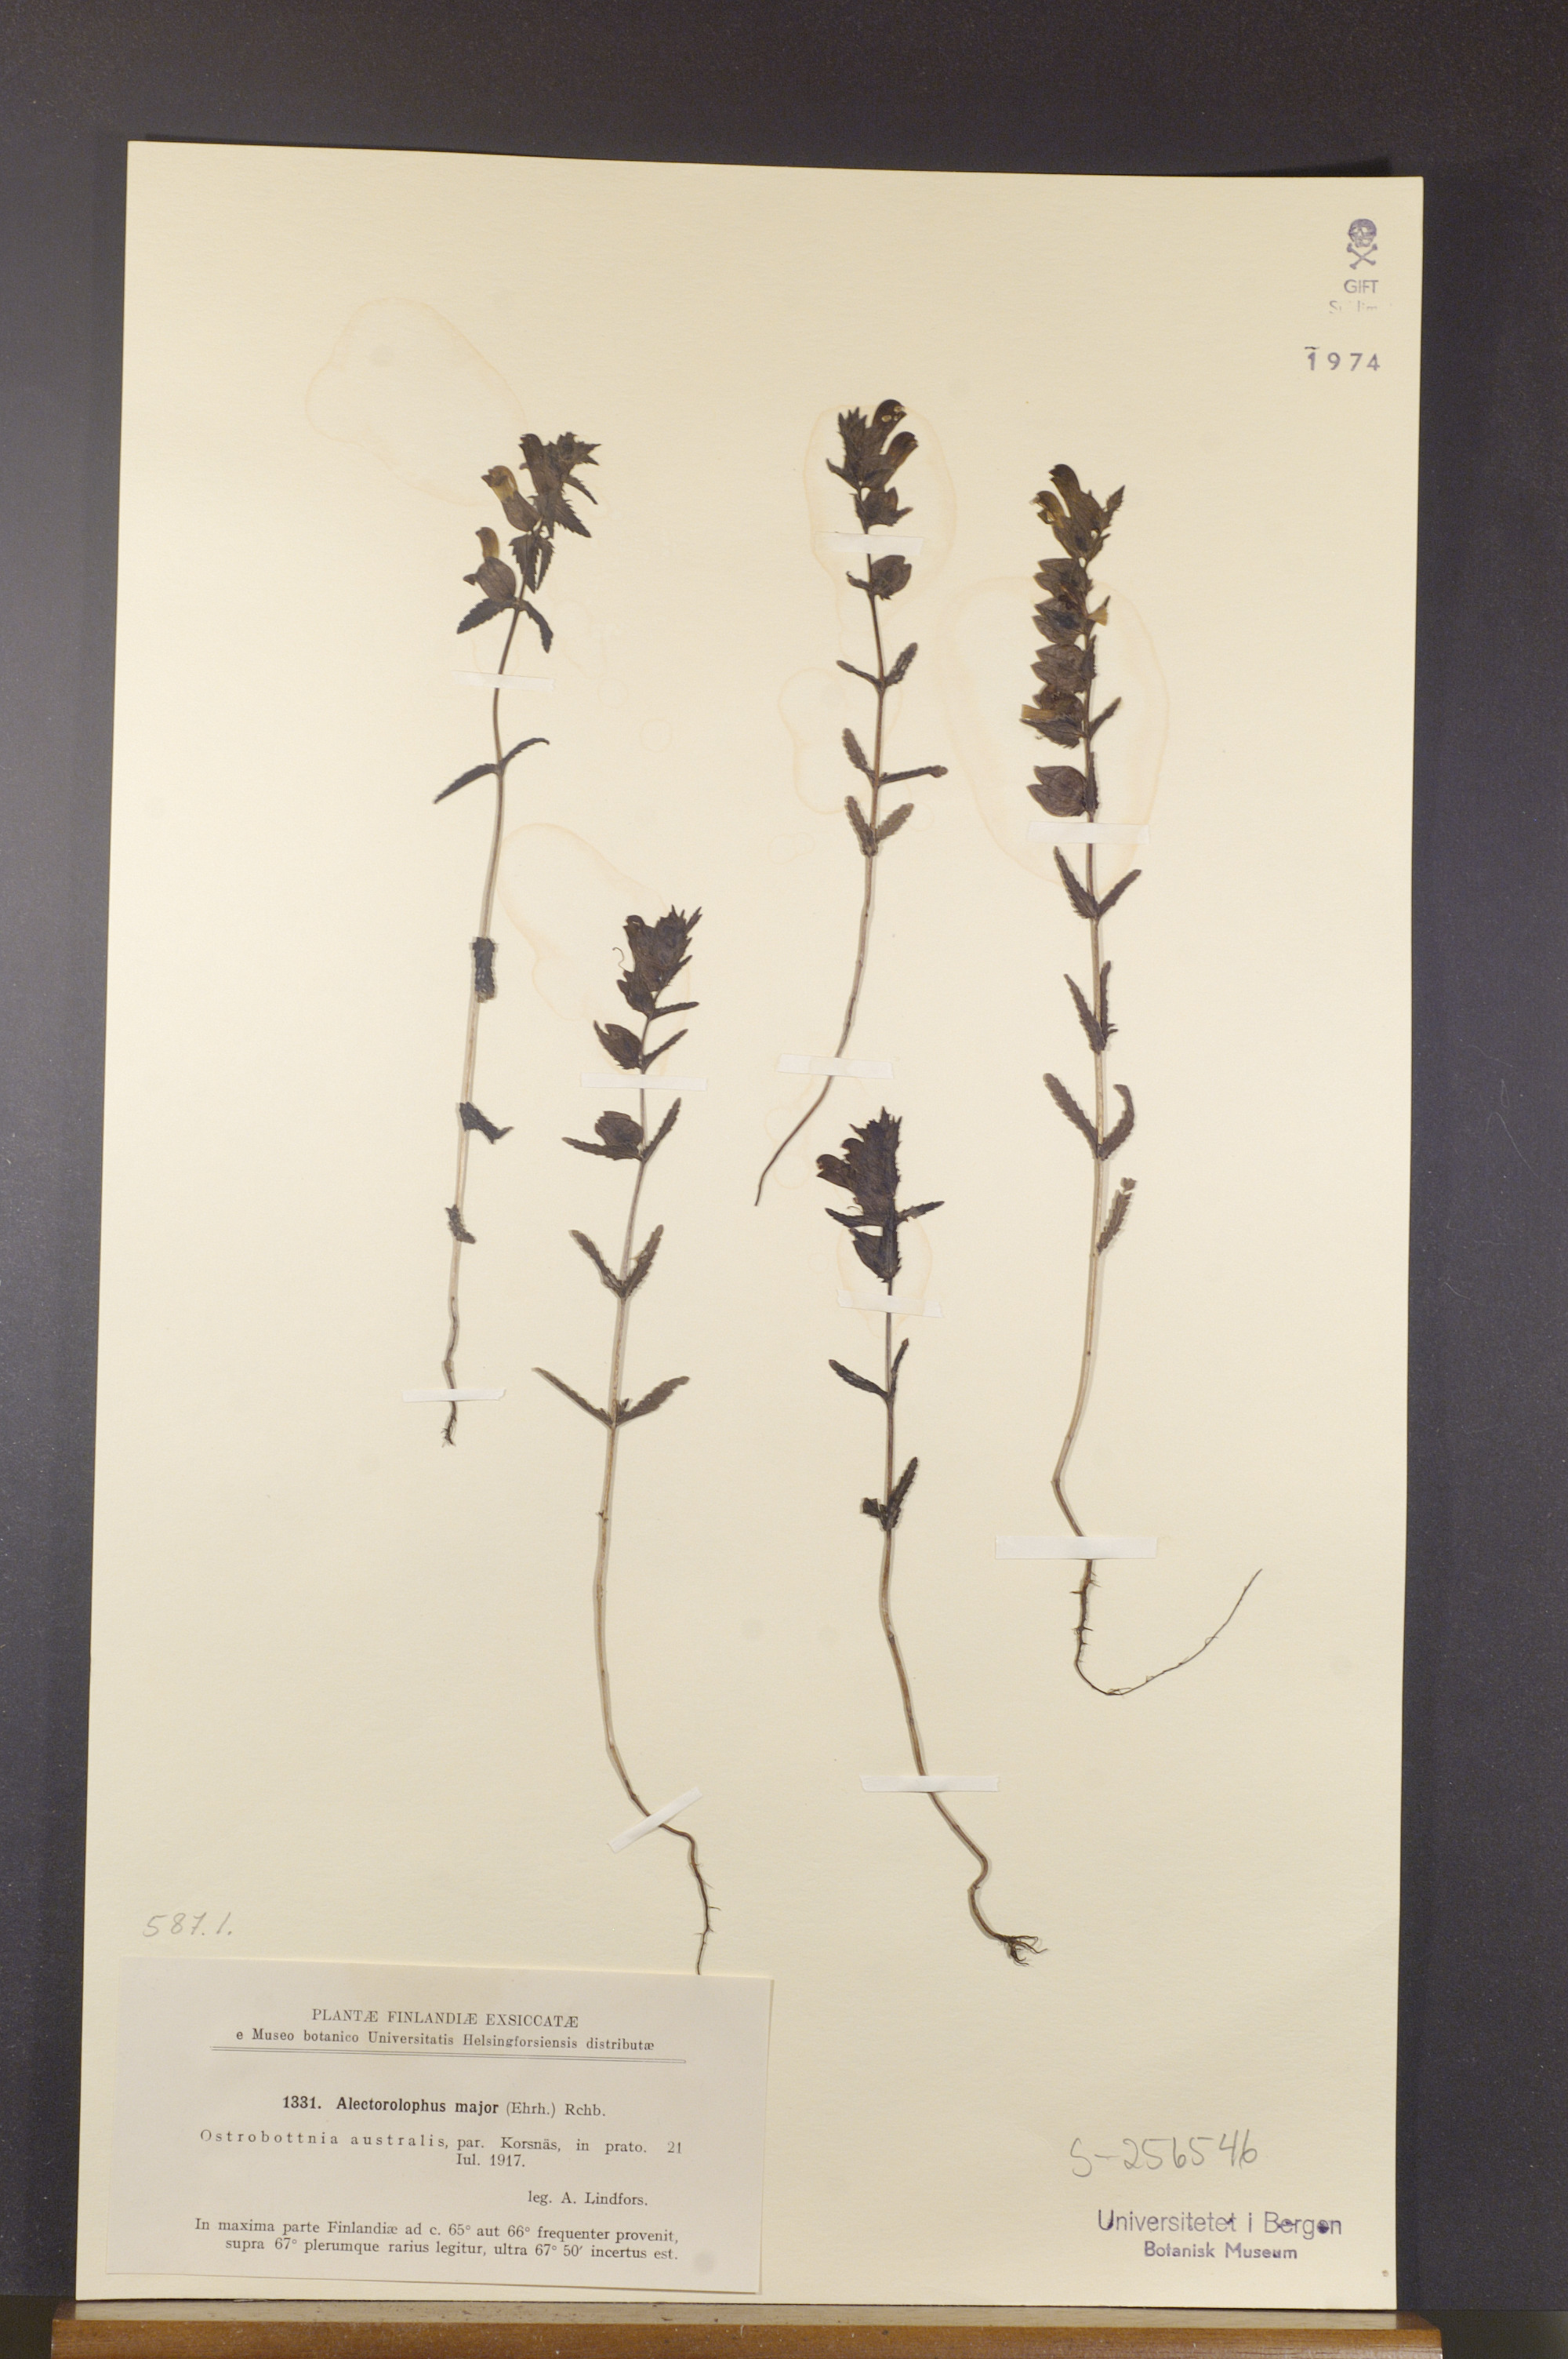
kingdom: Plantae
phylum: Tracheophyta
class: Magnoliopsida
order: Lamiales
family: Orobanchaceae
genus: Rhinanthus
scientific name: Rhinanthus serotinus
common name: Late-flowering yellow rattle
